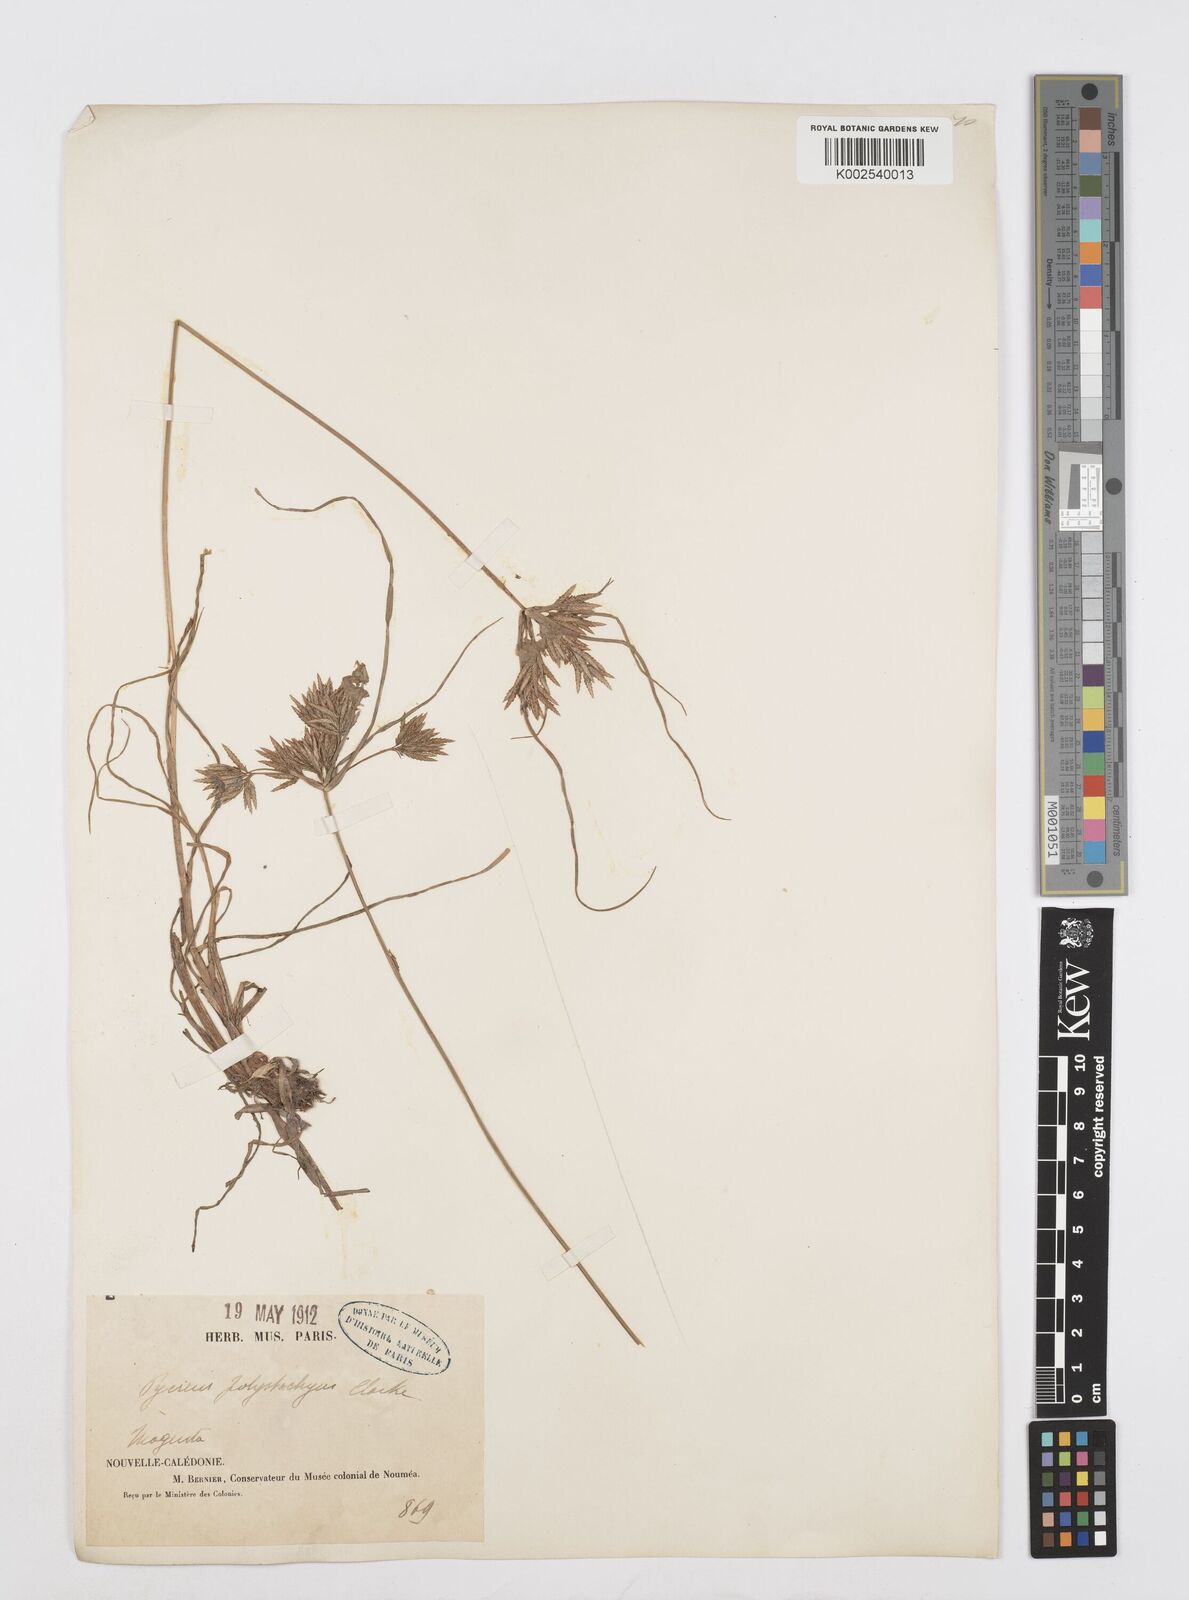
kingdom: Plantae
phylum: Tracheophyta
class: Liliopsida
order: Poales
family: Cyperaceae
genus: Cyperus
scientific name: Cyperus polystachyos
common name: Bunchy flat sedge
